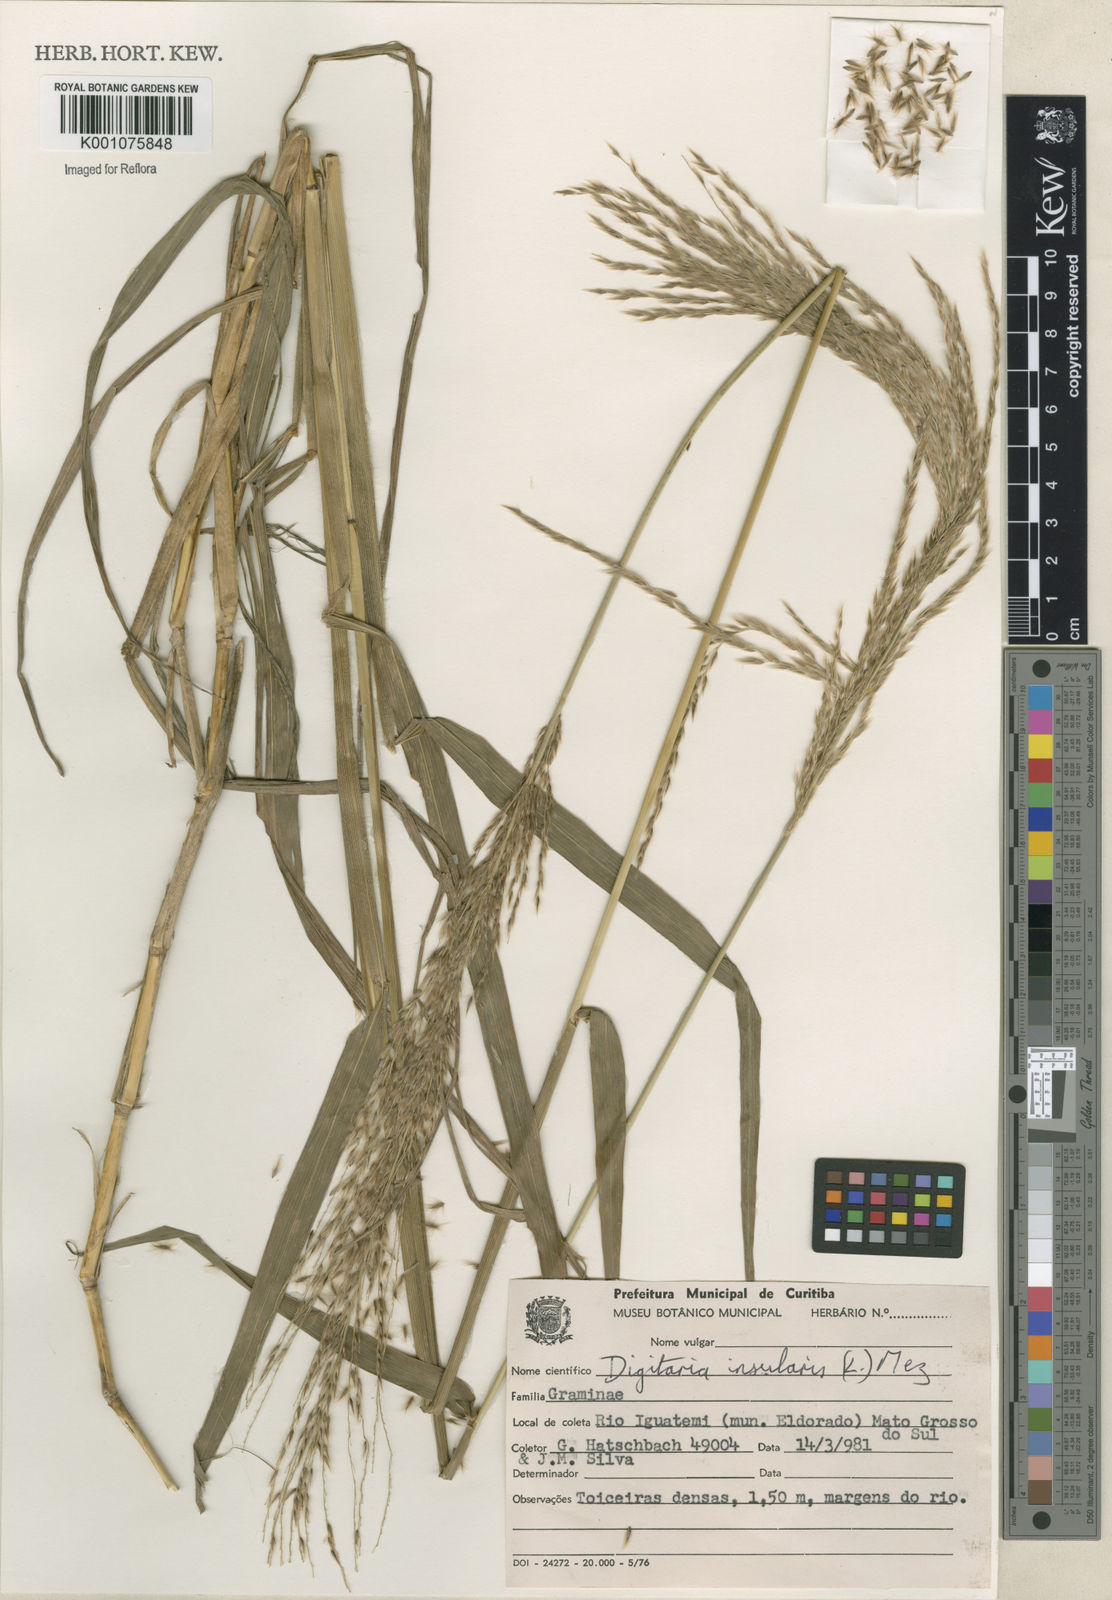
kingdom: Plantae
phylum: Tracheophyta
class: Liliopsida
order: Poales
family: Poaceae
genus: Digitaria
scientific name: Digitaria
